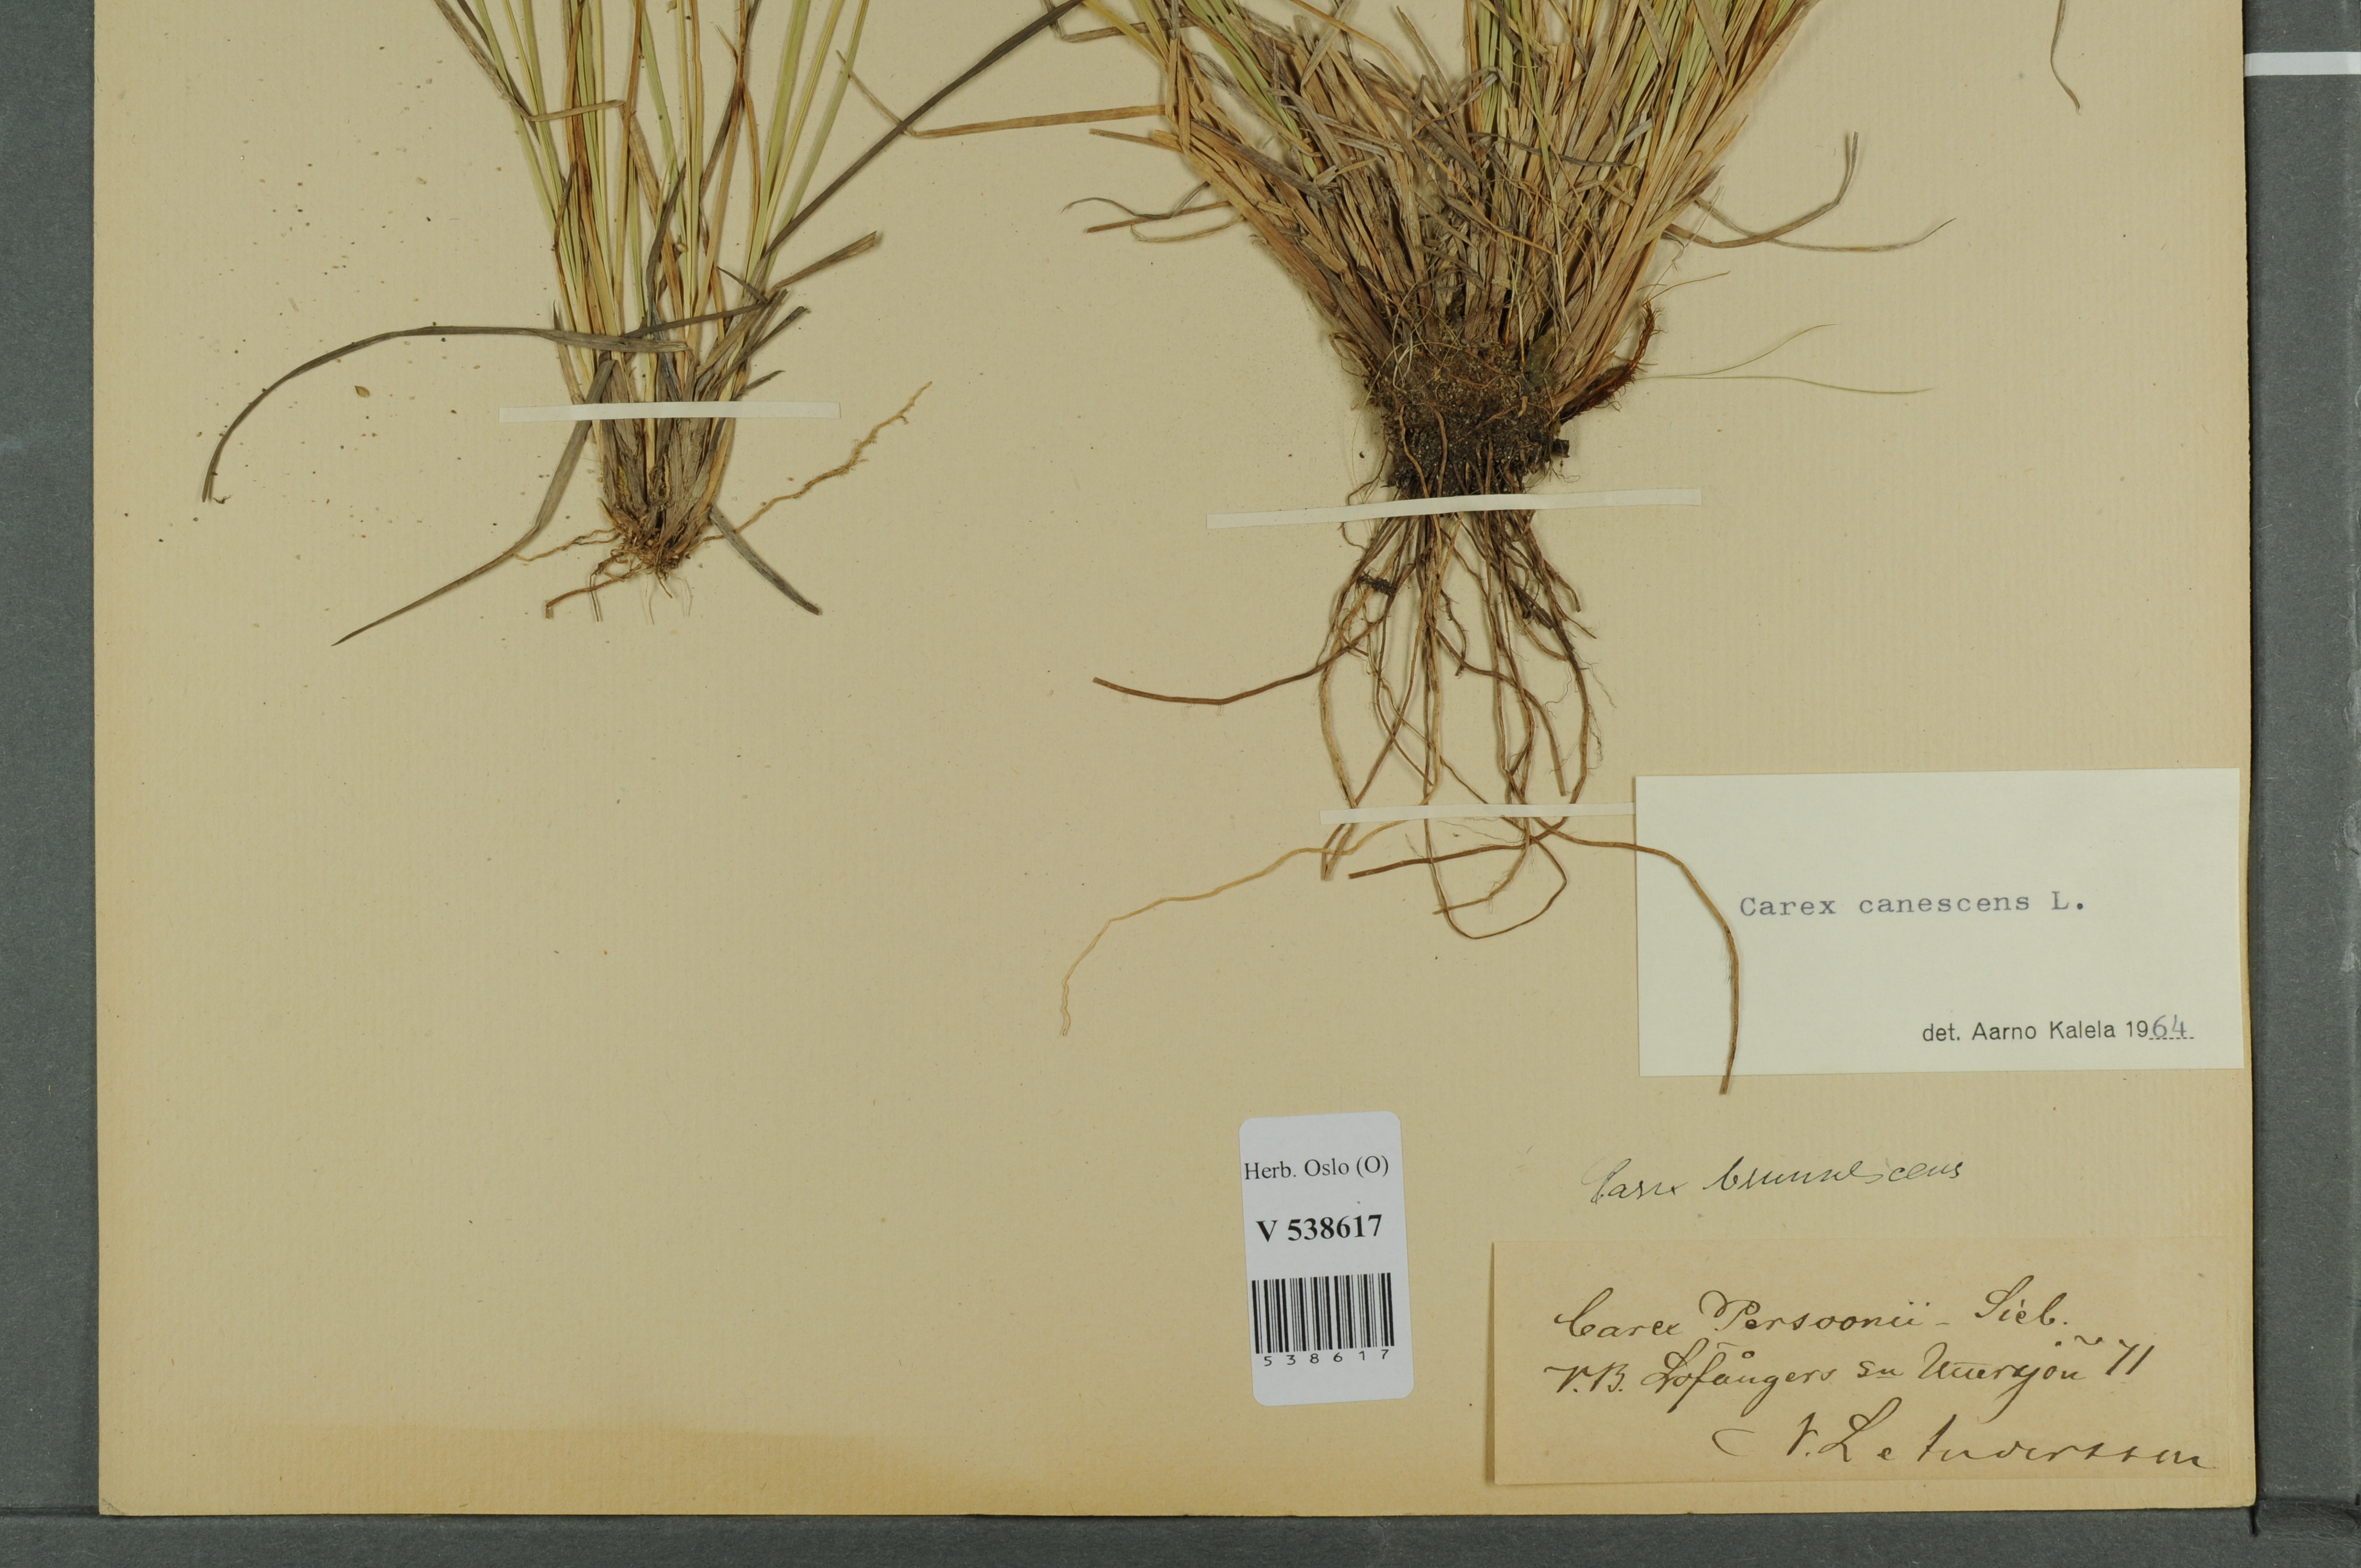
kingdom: Plantae
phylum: Tracheophyta
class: Liliopsida
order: Poales
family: Cyperaceae
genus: Carex
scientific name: Carex canescens
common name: White sedge
